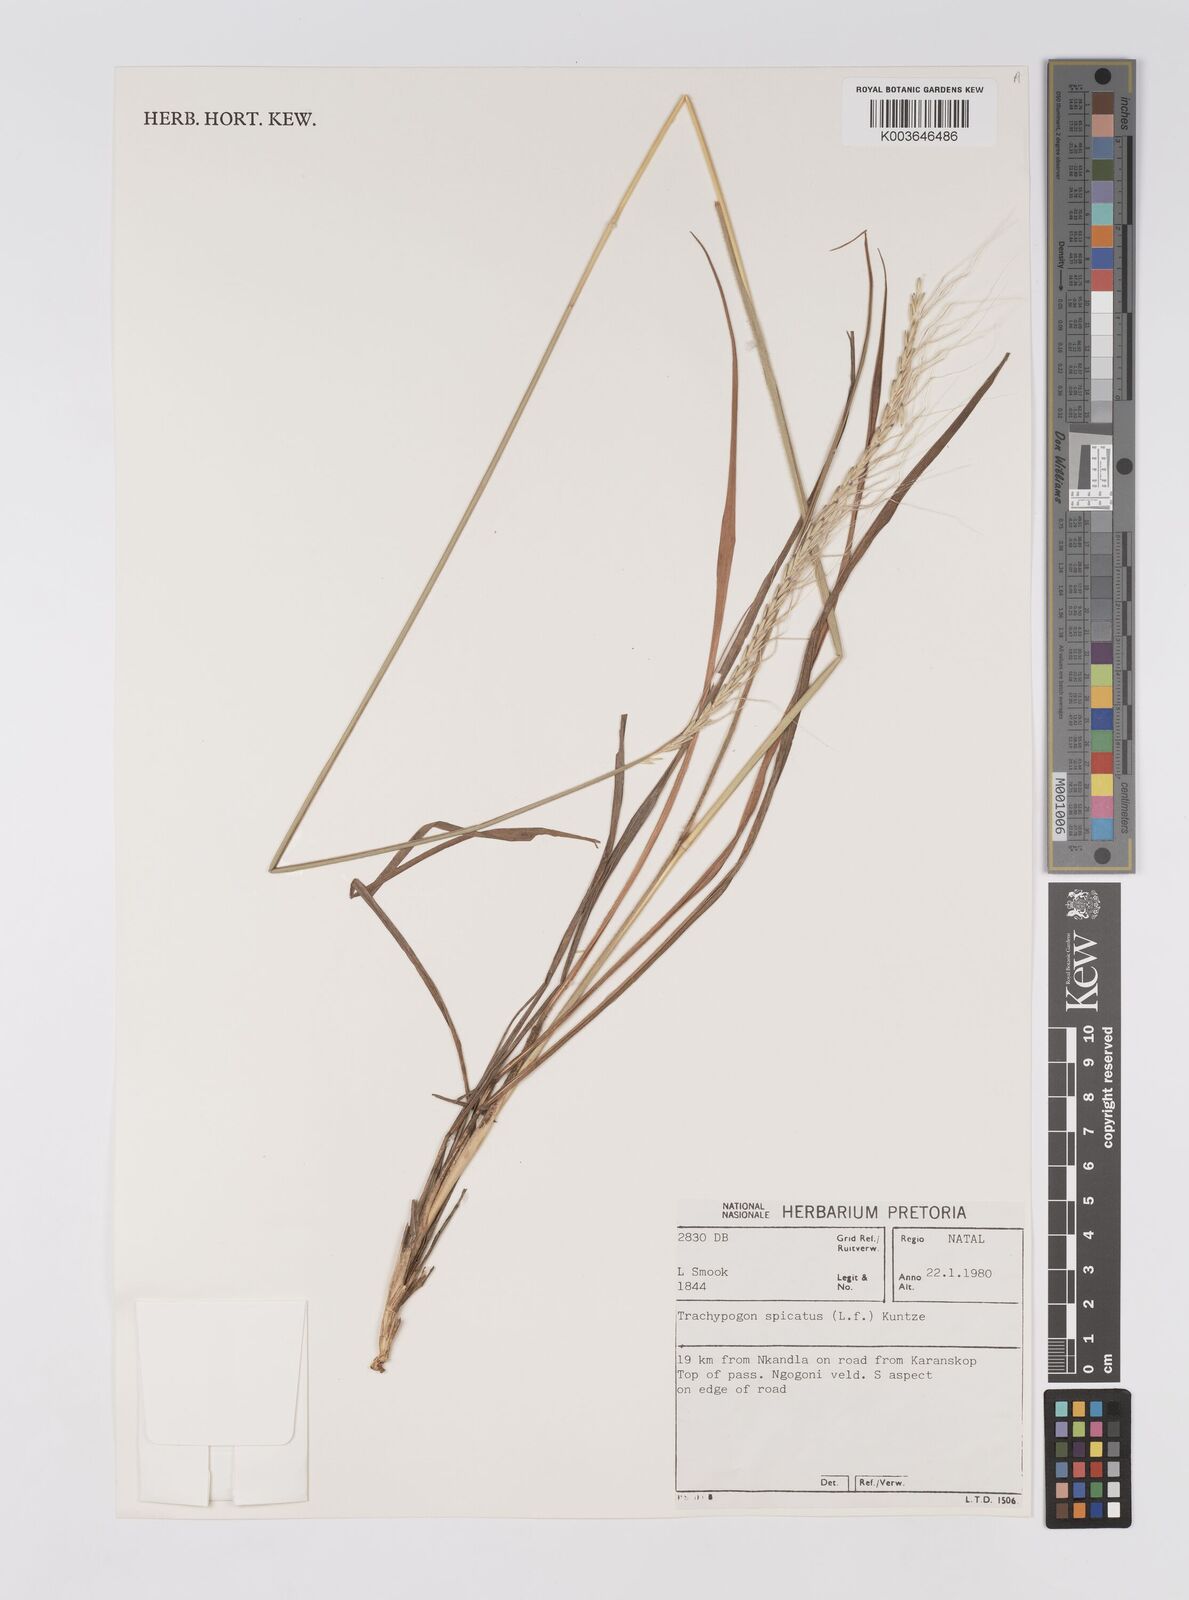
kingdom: Plantae
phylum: Tracheophyta
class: Liliopsida
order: Poales
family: Poaceae
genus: Trachypogon
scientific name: Trachypogon spicatus
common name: Crinkle-awn
